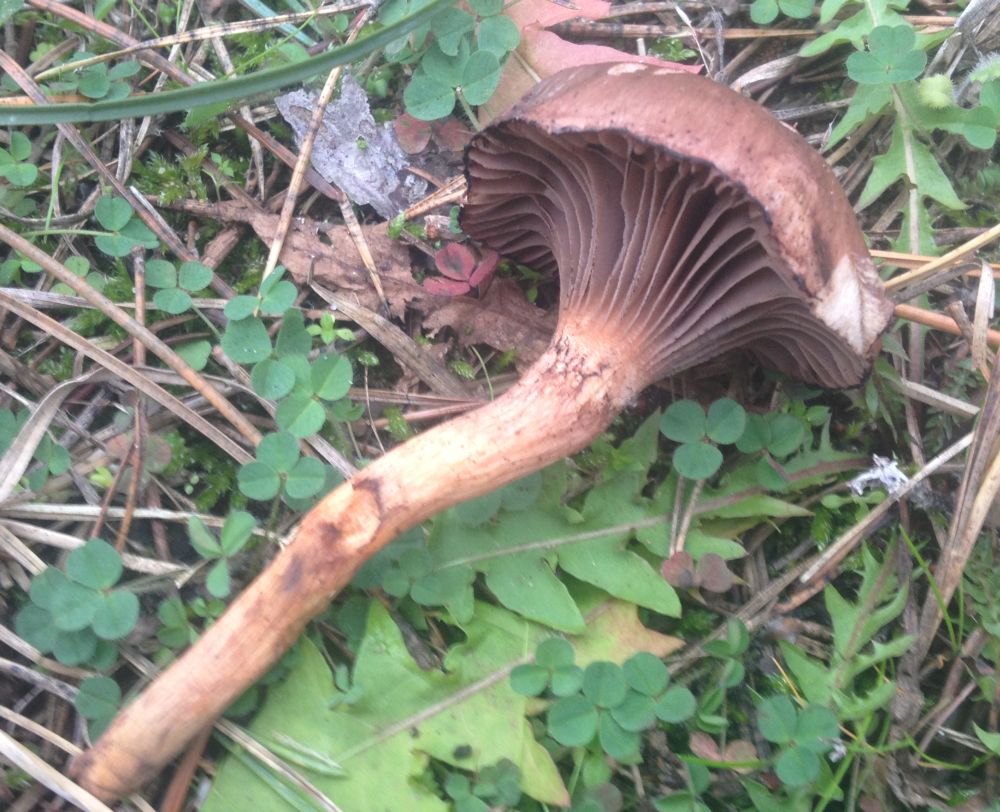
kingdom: Fungi
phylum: Basidiomycota
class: Agaricomycetes
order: Boletales
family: Gomphidiaceae
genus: Chroogomphus
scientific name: Chroogomphus rutilus
